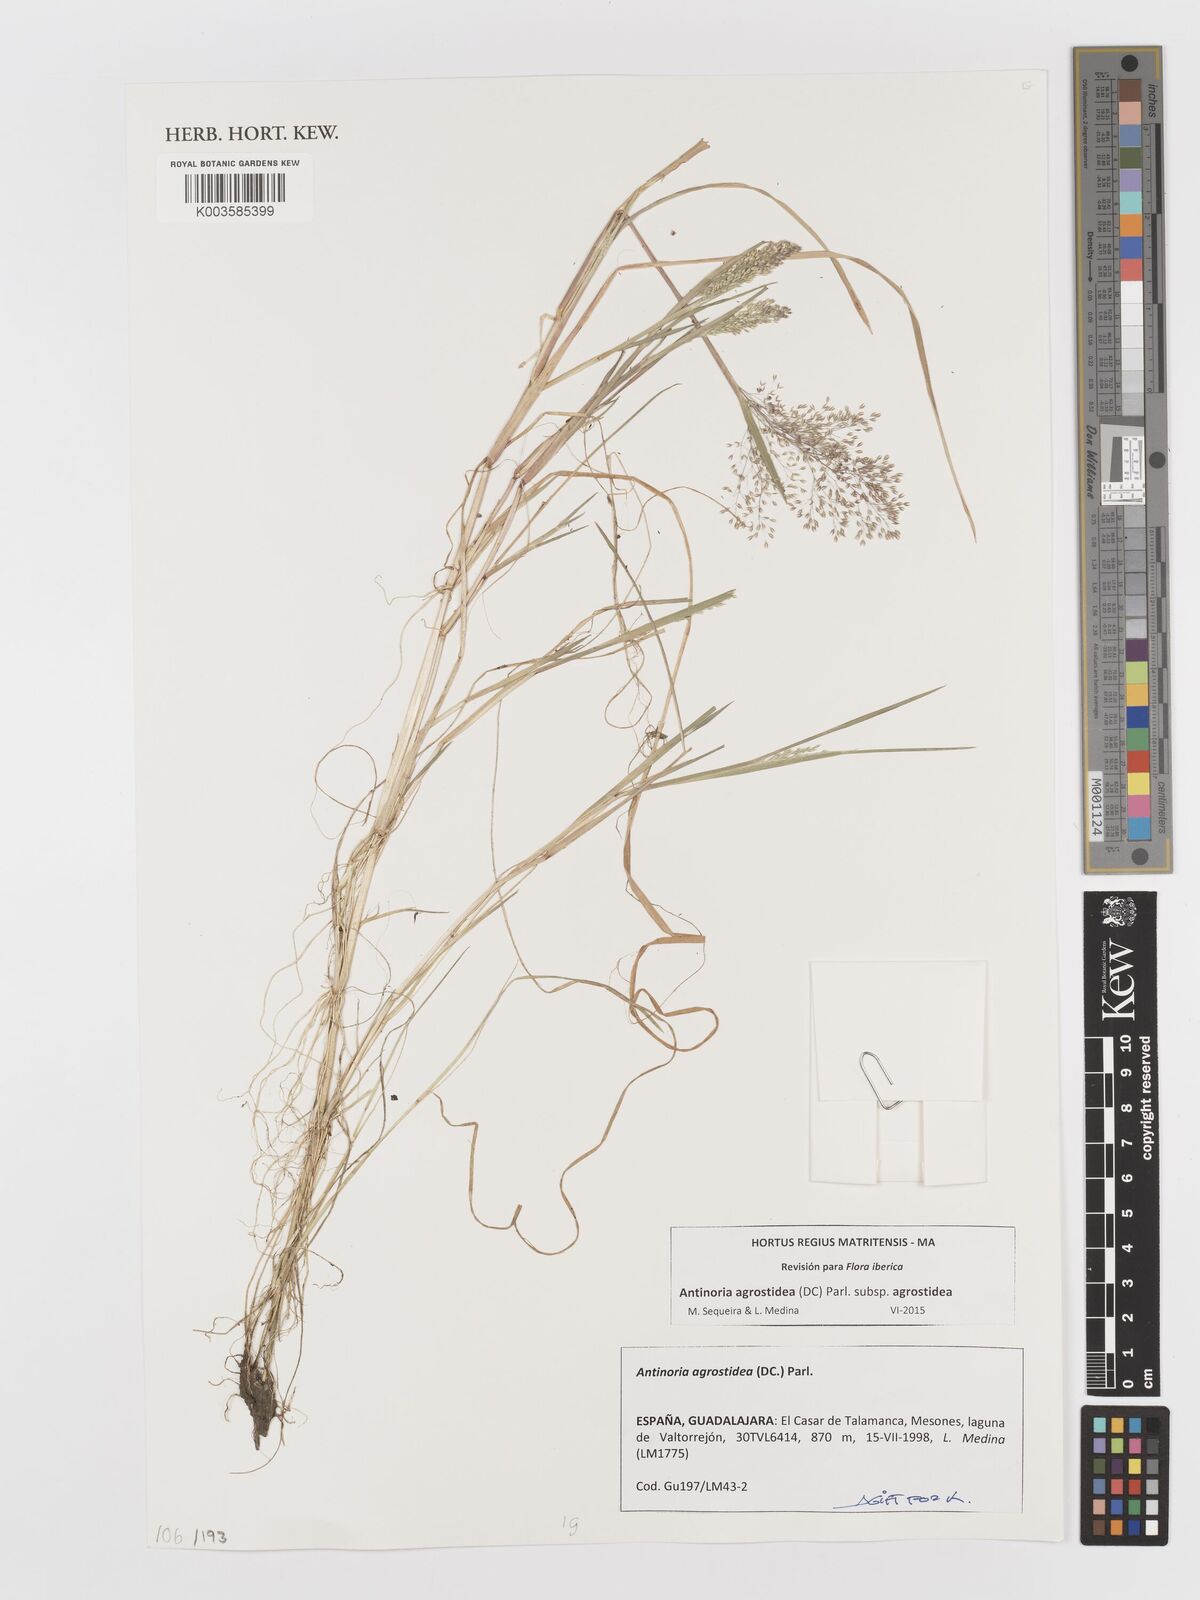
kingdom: Plantae
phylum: Tracheophyta
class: Liliopsida
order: Poales
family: Poaceae
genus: Antinoria
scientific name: Antinoria agrostidea
